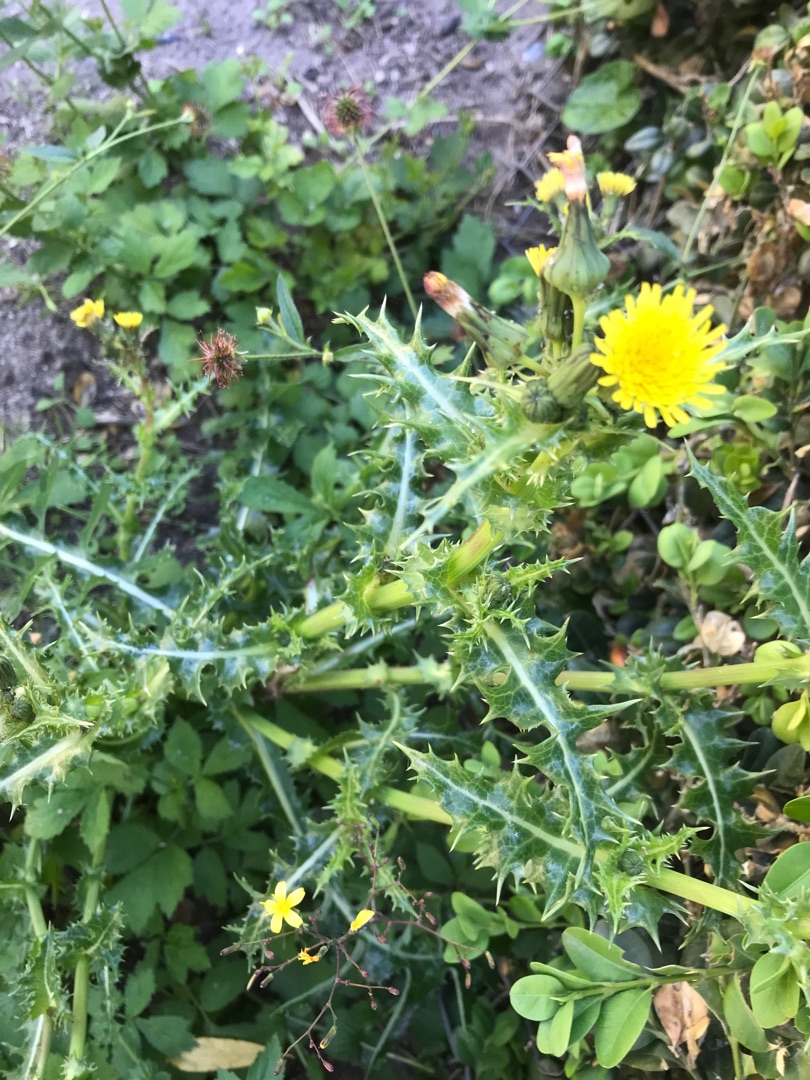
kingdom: Plantae
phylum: Tracheophyta
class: Magnoliopsida
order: Asterales
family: Asteraceae
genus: Sonchus
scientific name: Sonchus asper
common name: Ru svinemælk
